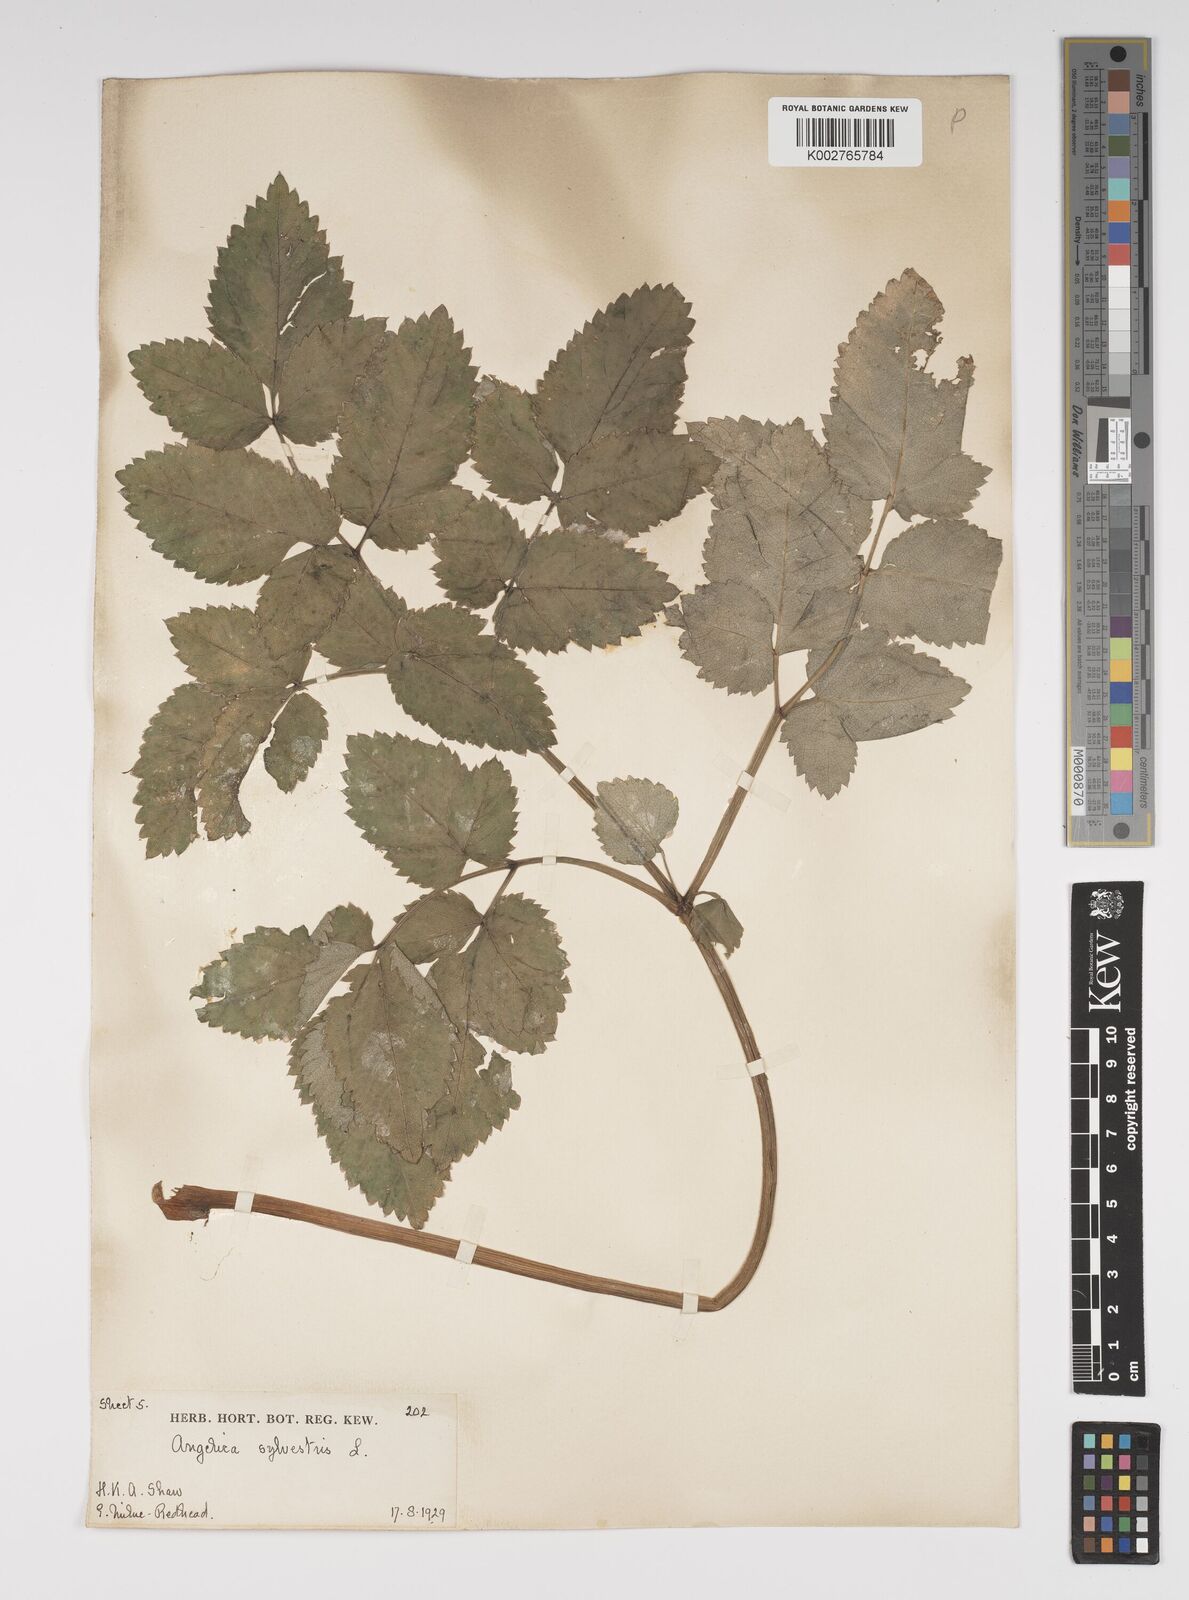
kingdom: Plantae
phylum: Tracheophyta
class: Magnoliopsida
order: Apiales
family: Apiaceae
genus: Angelica
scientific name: Angelica sylvestris
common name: Wild angelica
